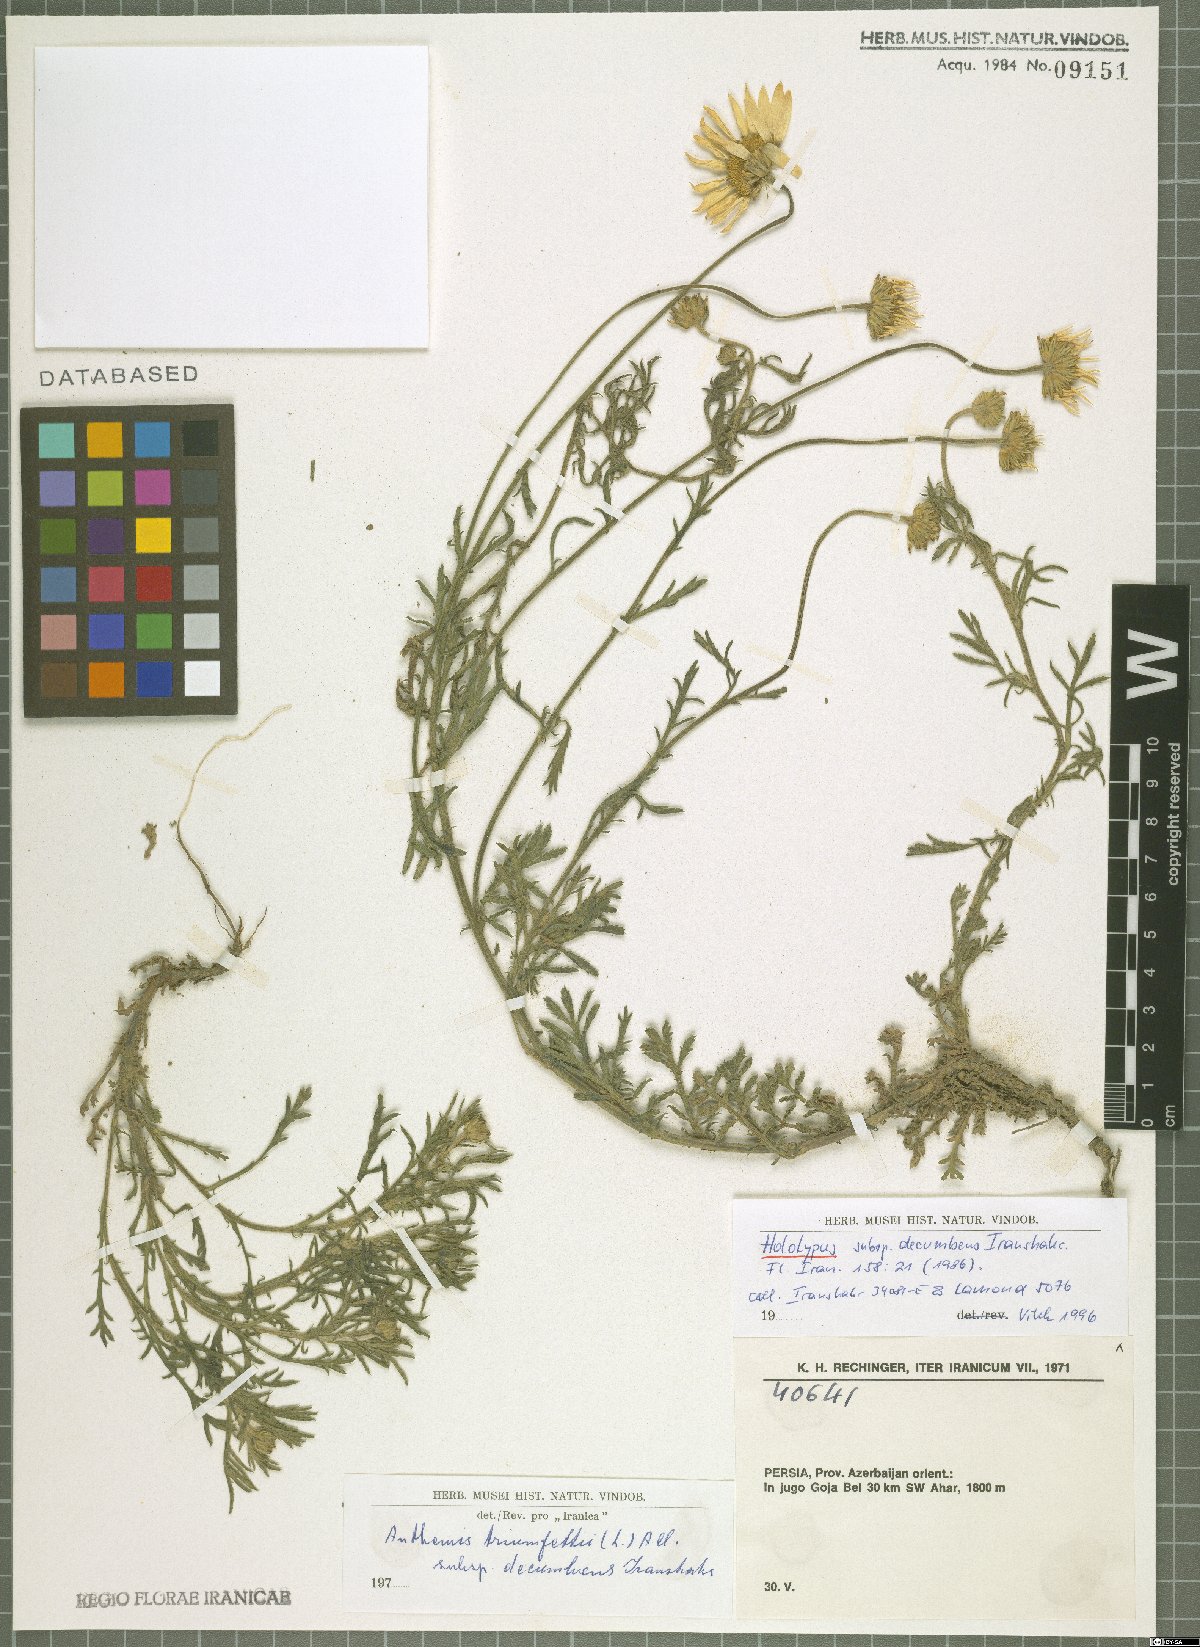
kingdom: Plantae
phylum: Tracheophyta
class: Magnoliopsida
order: Asterales
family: Asteraceae
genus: Cota
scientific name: Cota triumfetti
